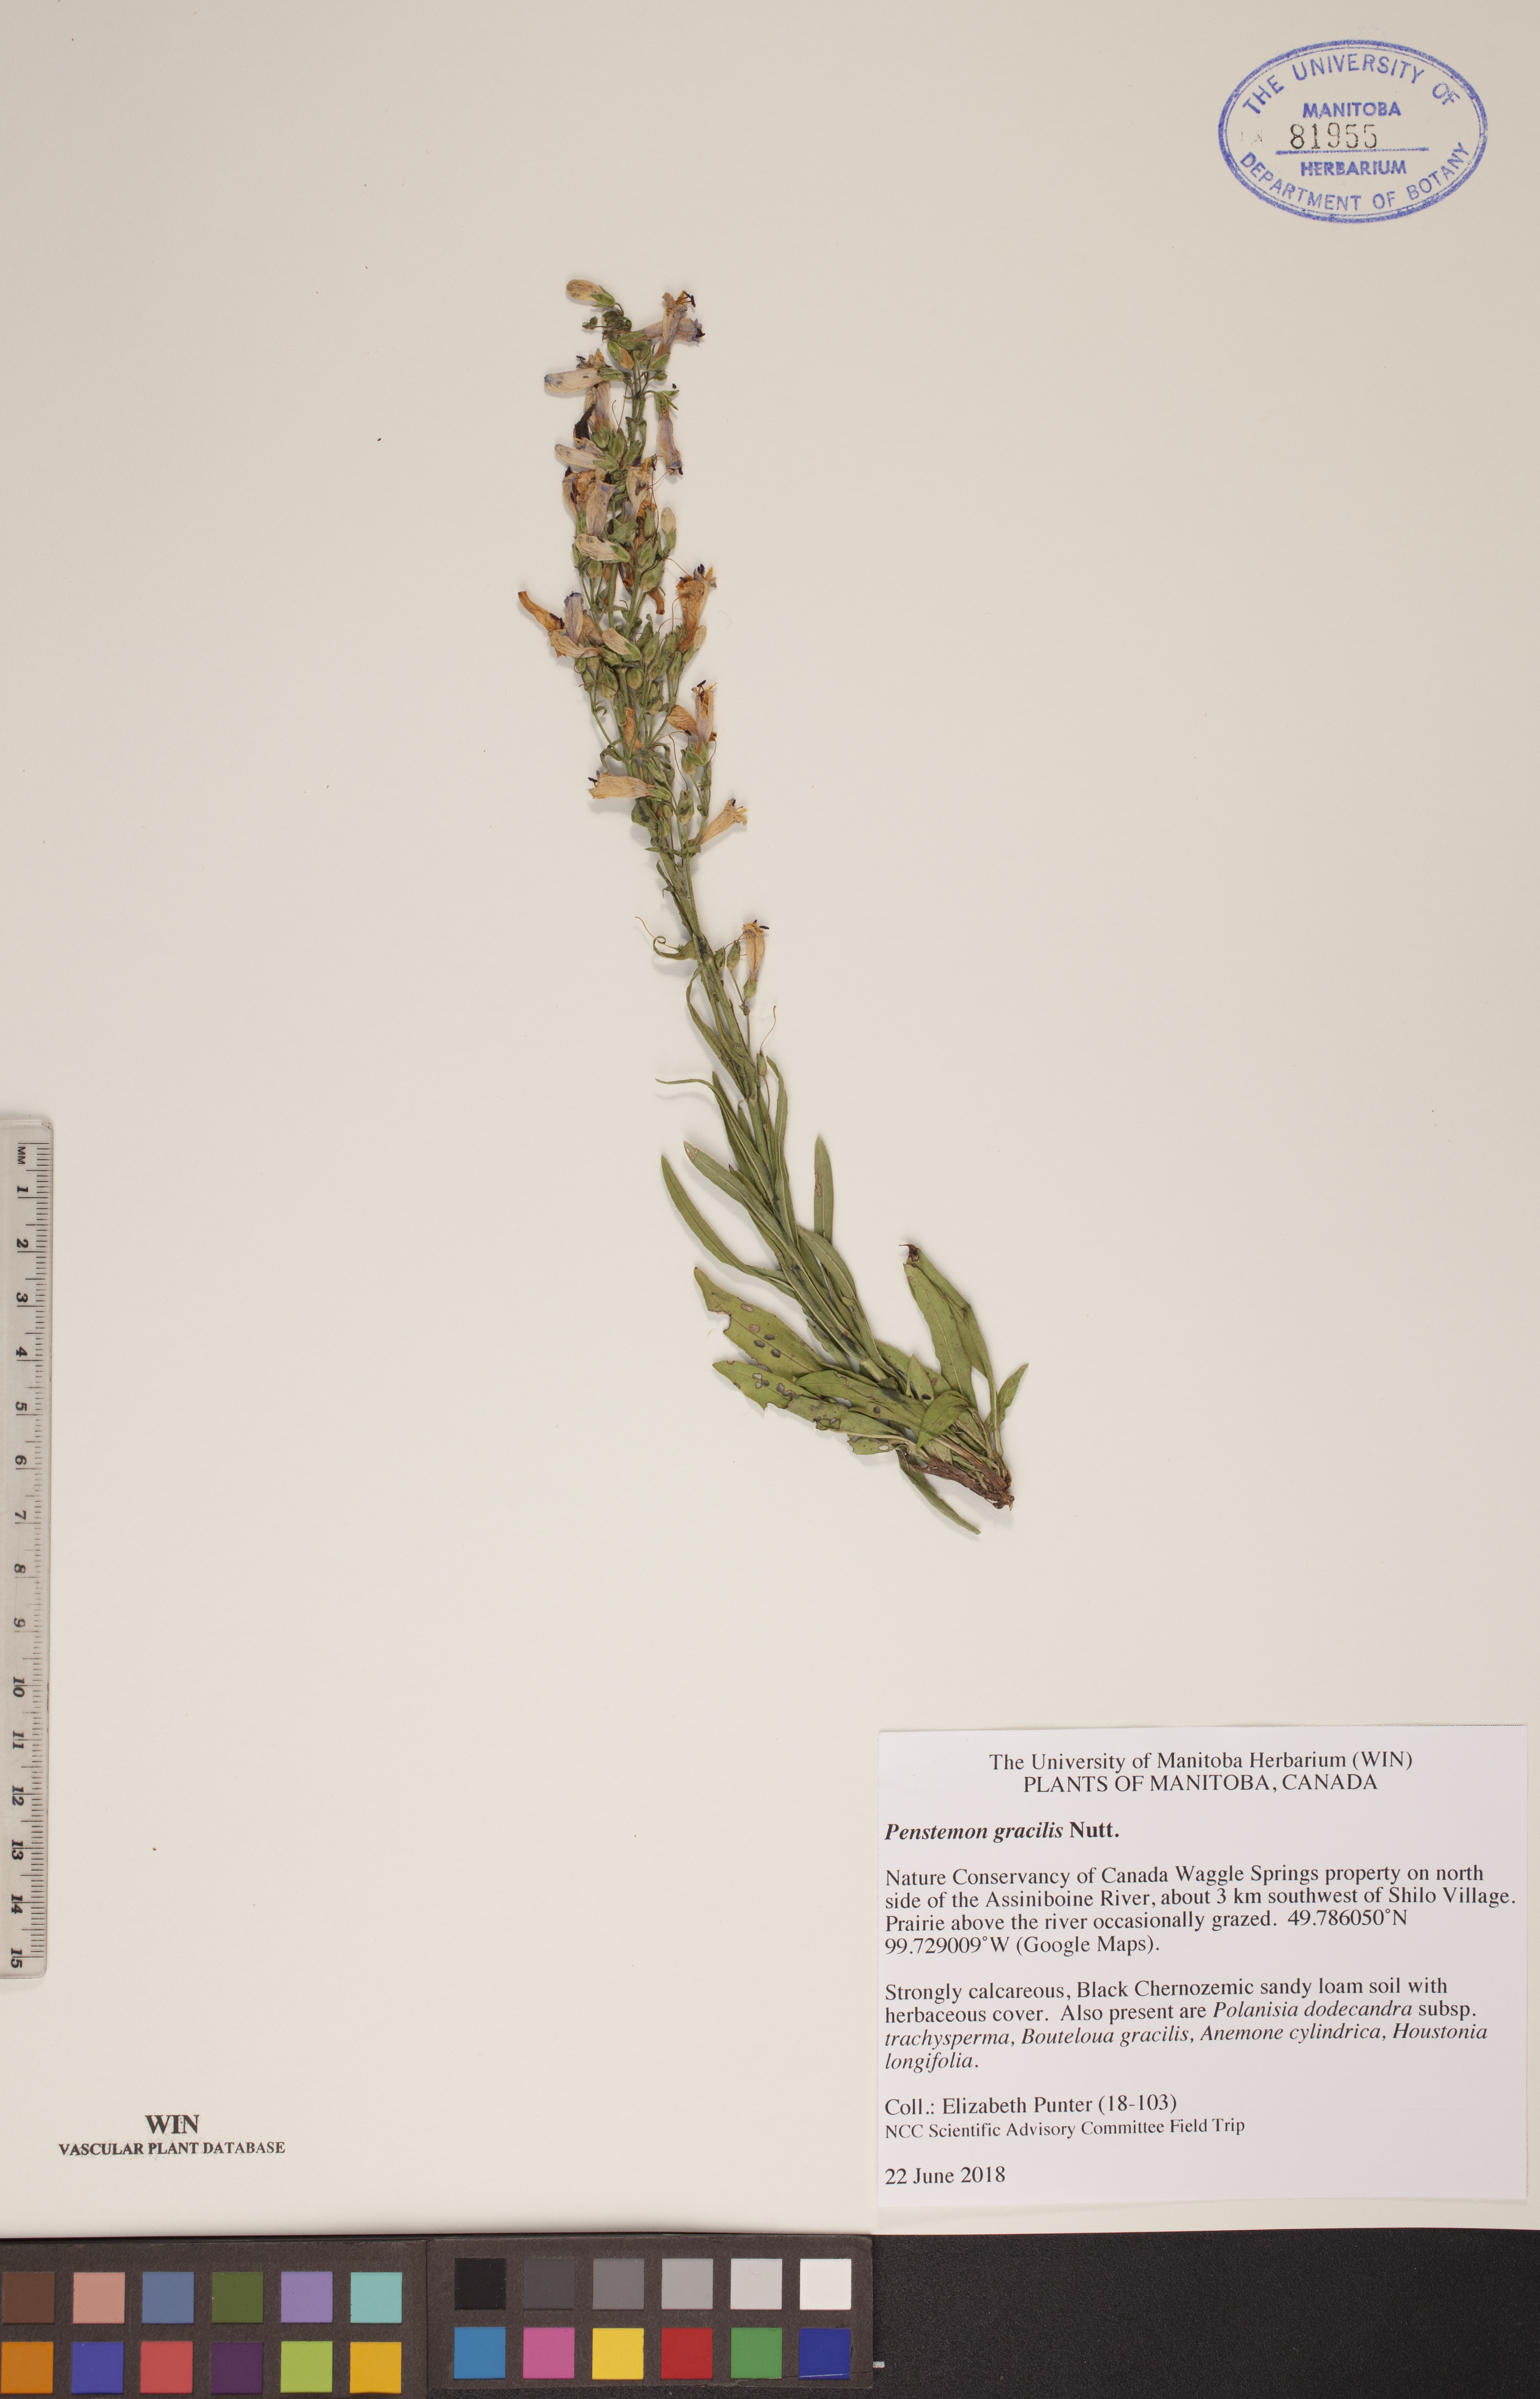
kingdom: Plantae
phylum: Tracheophyta
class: Magnoliopsida
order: Lamiales
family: Plantaginaceae
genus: Penstemon
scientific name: Penstemon gracilis
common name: Slender beardtongue
